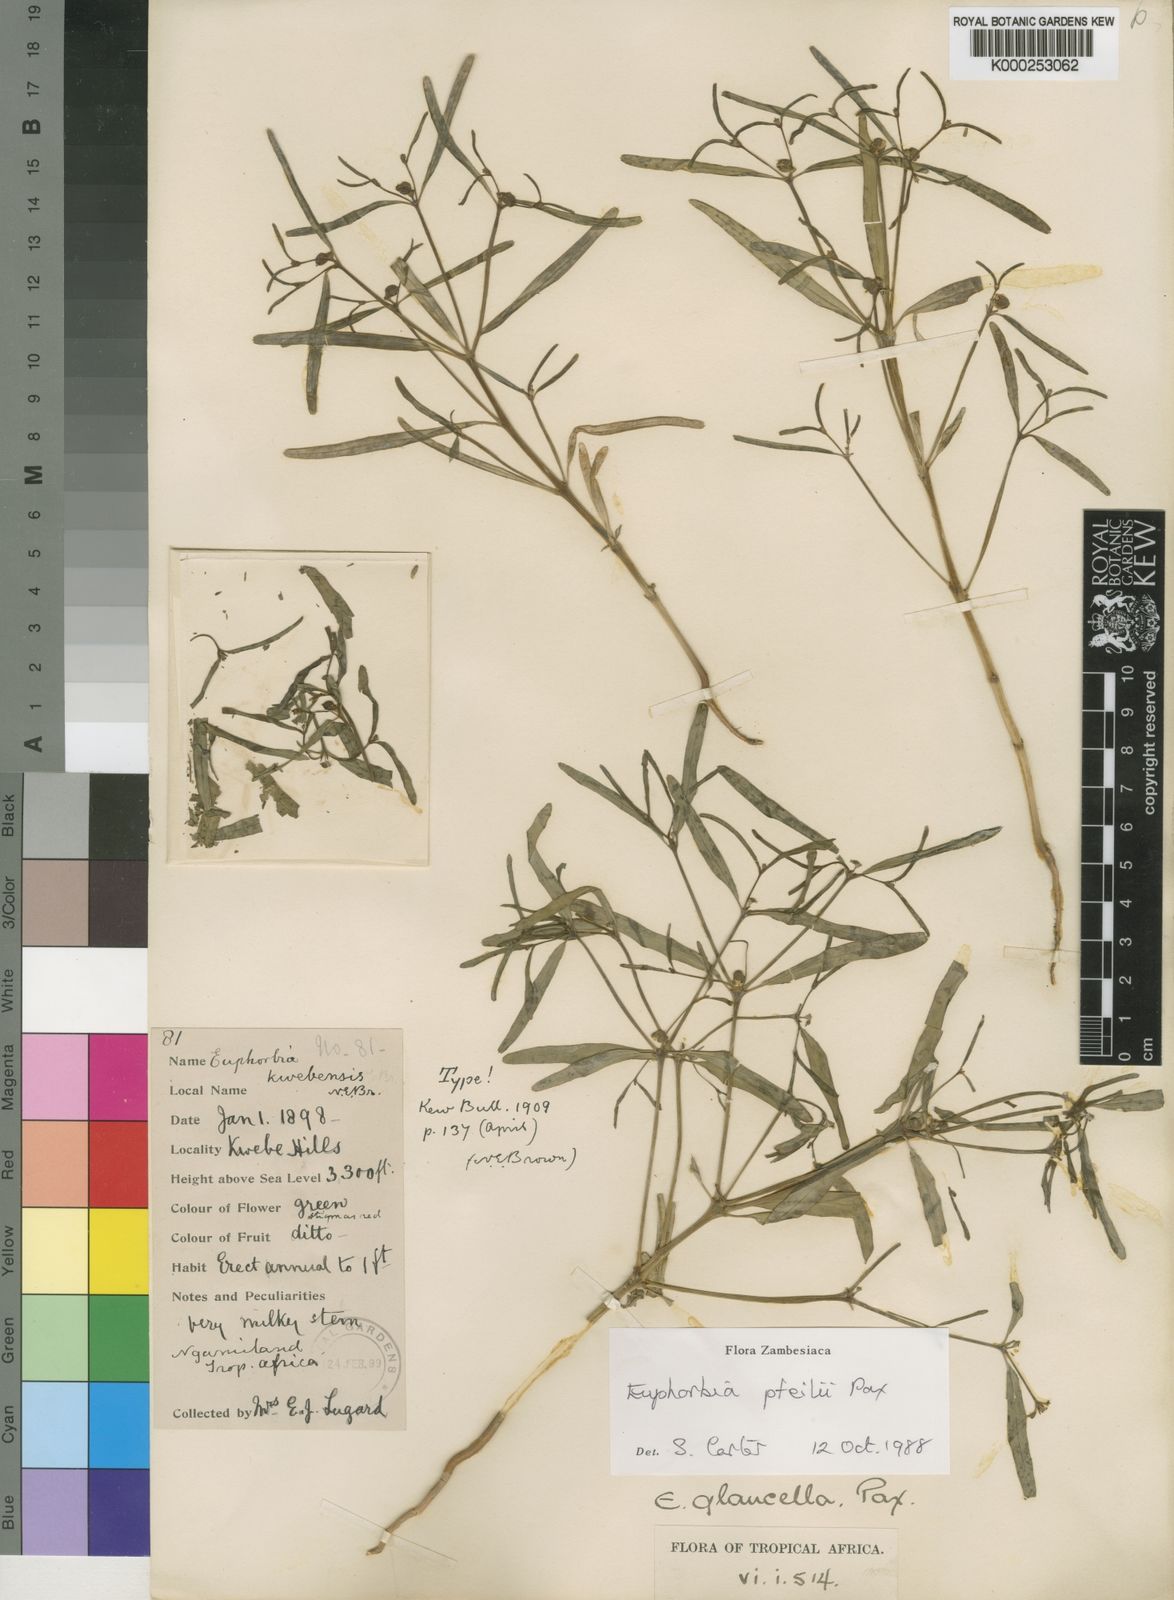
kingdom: Plantae
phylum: Tracheophyta
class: Magnoliopsida
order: Malpighiales
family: Euphorbiaceae
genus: Euphorbia
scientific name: Euphorbia glanduligera
